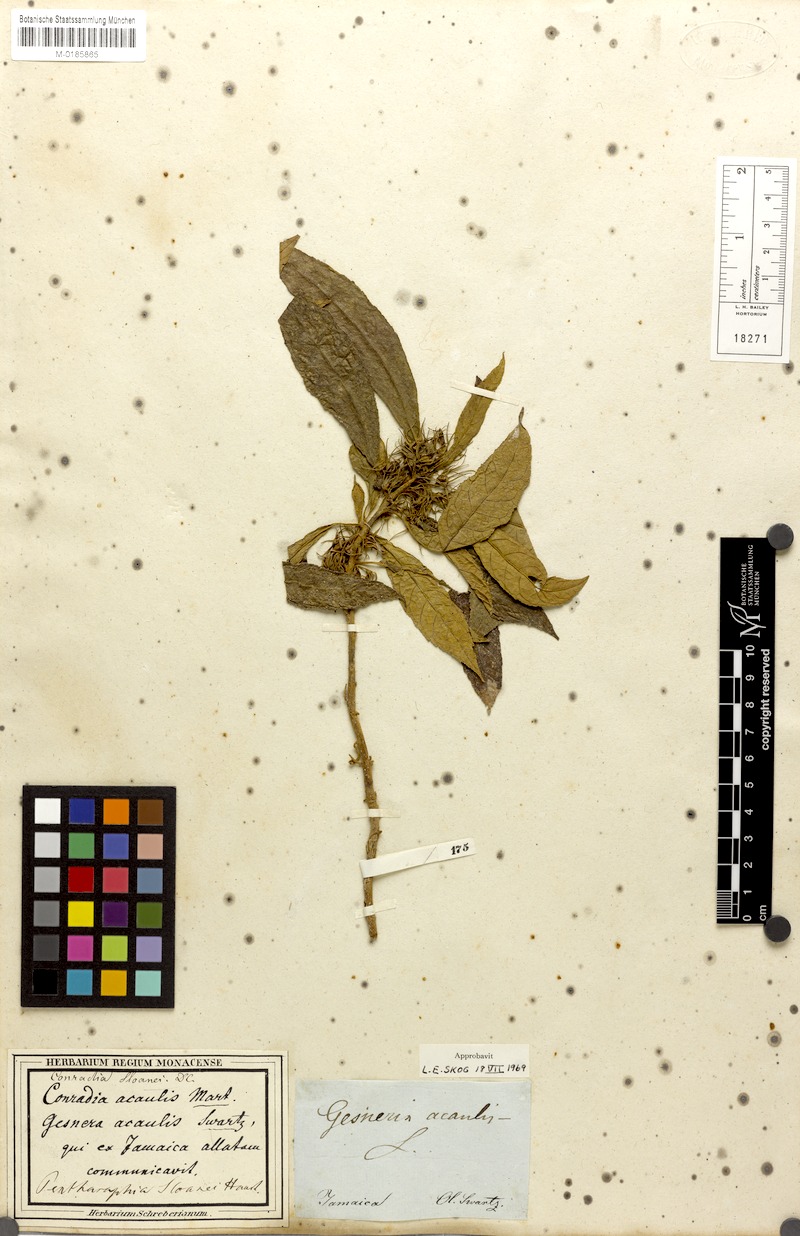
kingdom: Plantae
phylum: Tracheophyta
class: Magnoliopsida
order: Lamiales
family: Gesneriaceae
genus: Gesneria
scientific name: Gesneria acaulis
